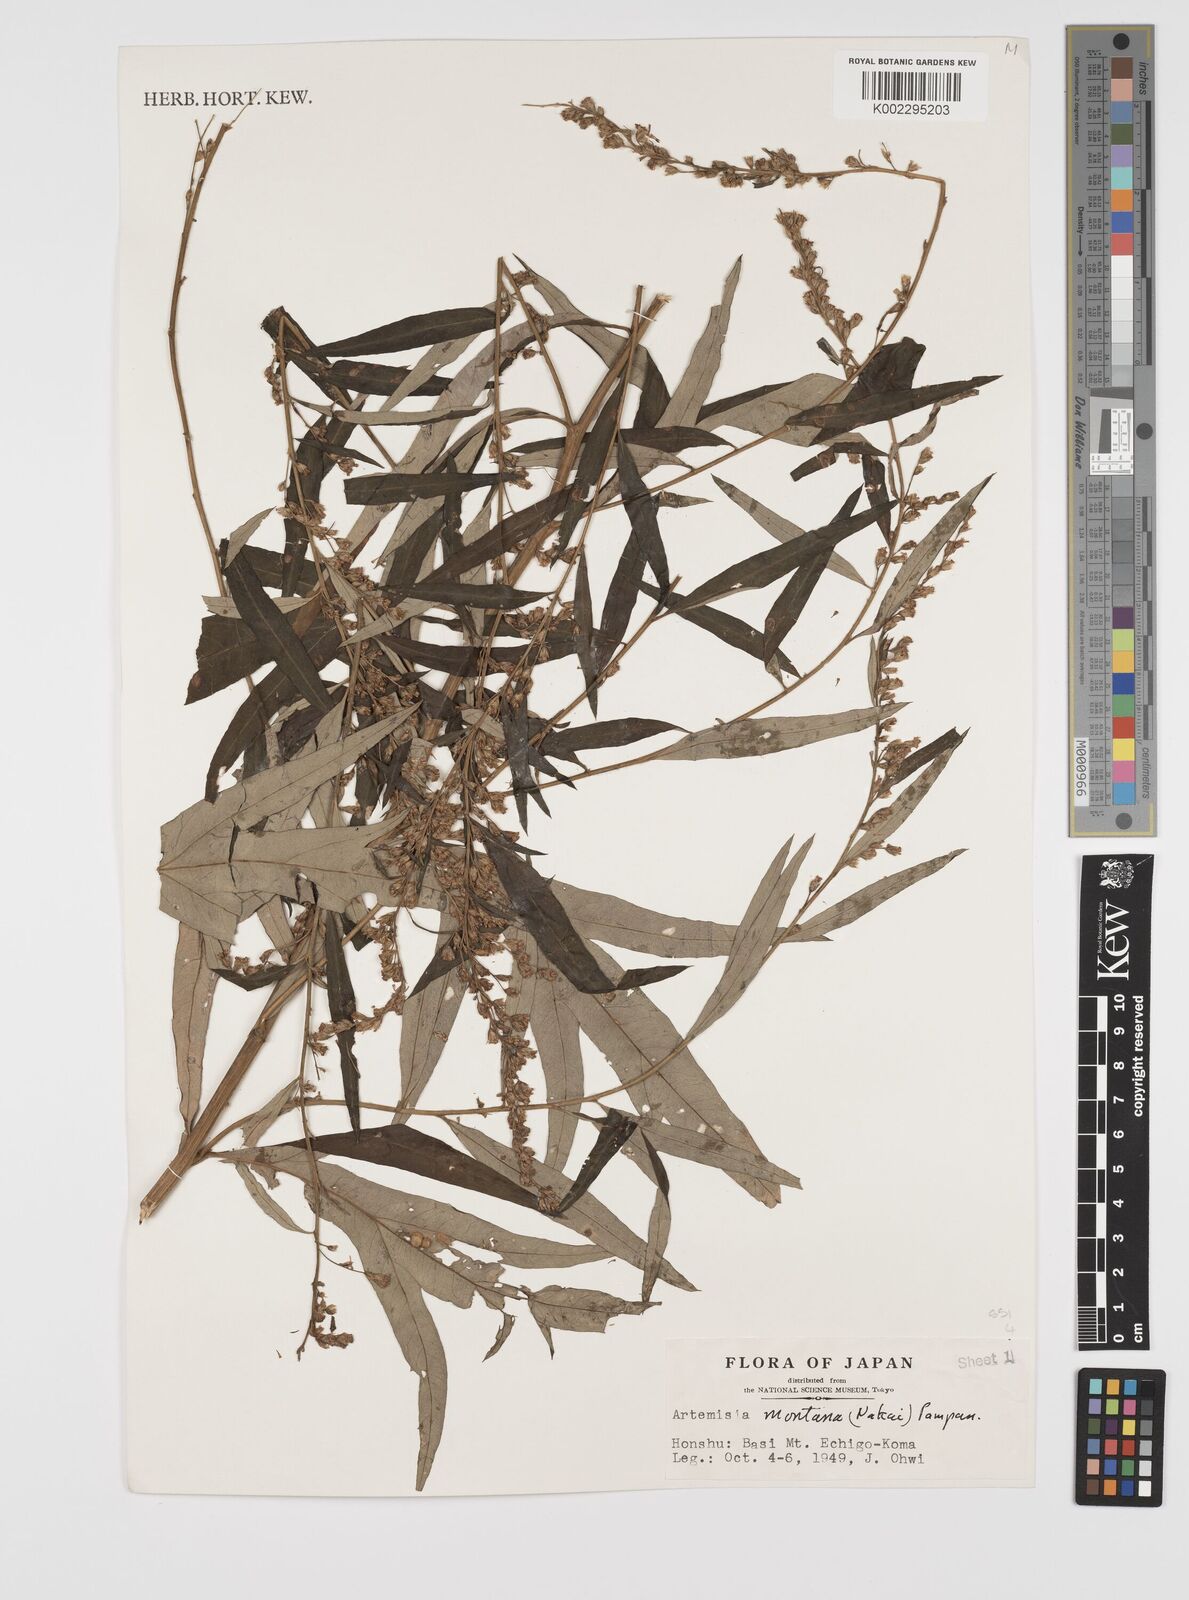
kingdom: Plantae
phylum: Tracheophyta
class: Magnoliopsida
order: Asterales
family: Asteraceae
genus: Artemisia
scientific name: Artemisia montana
